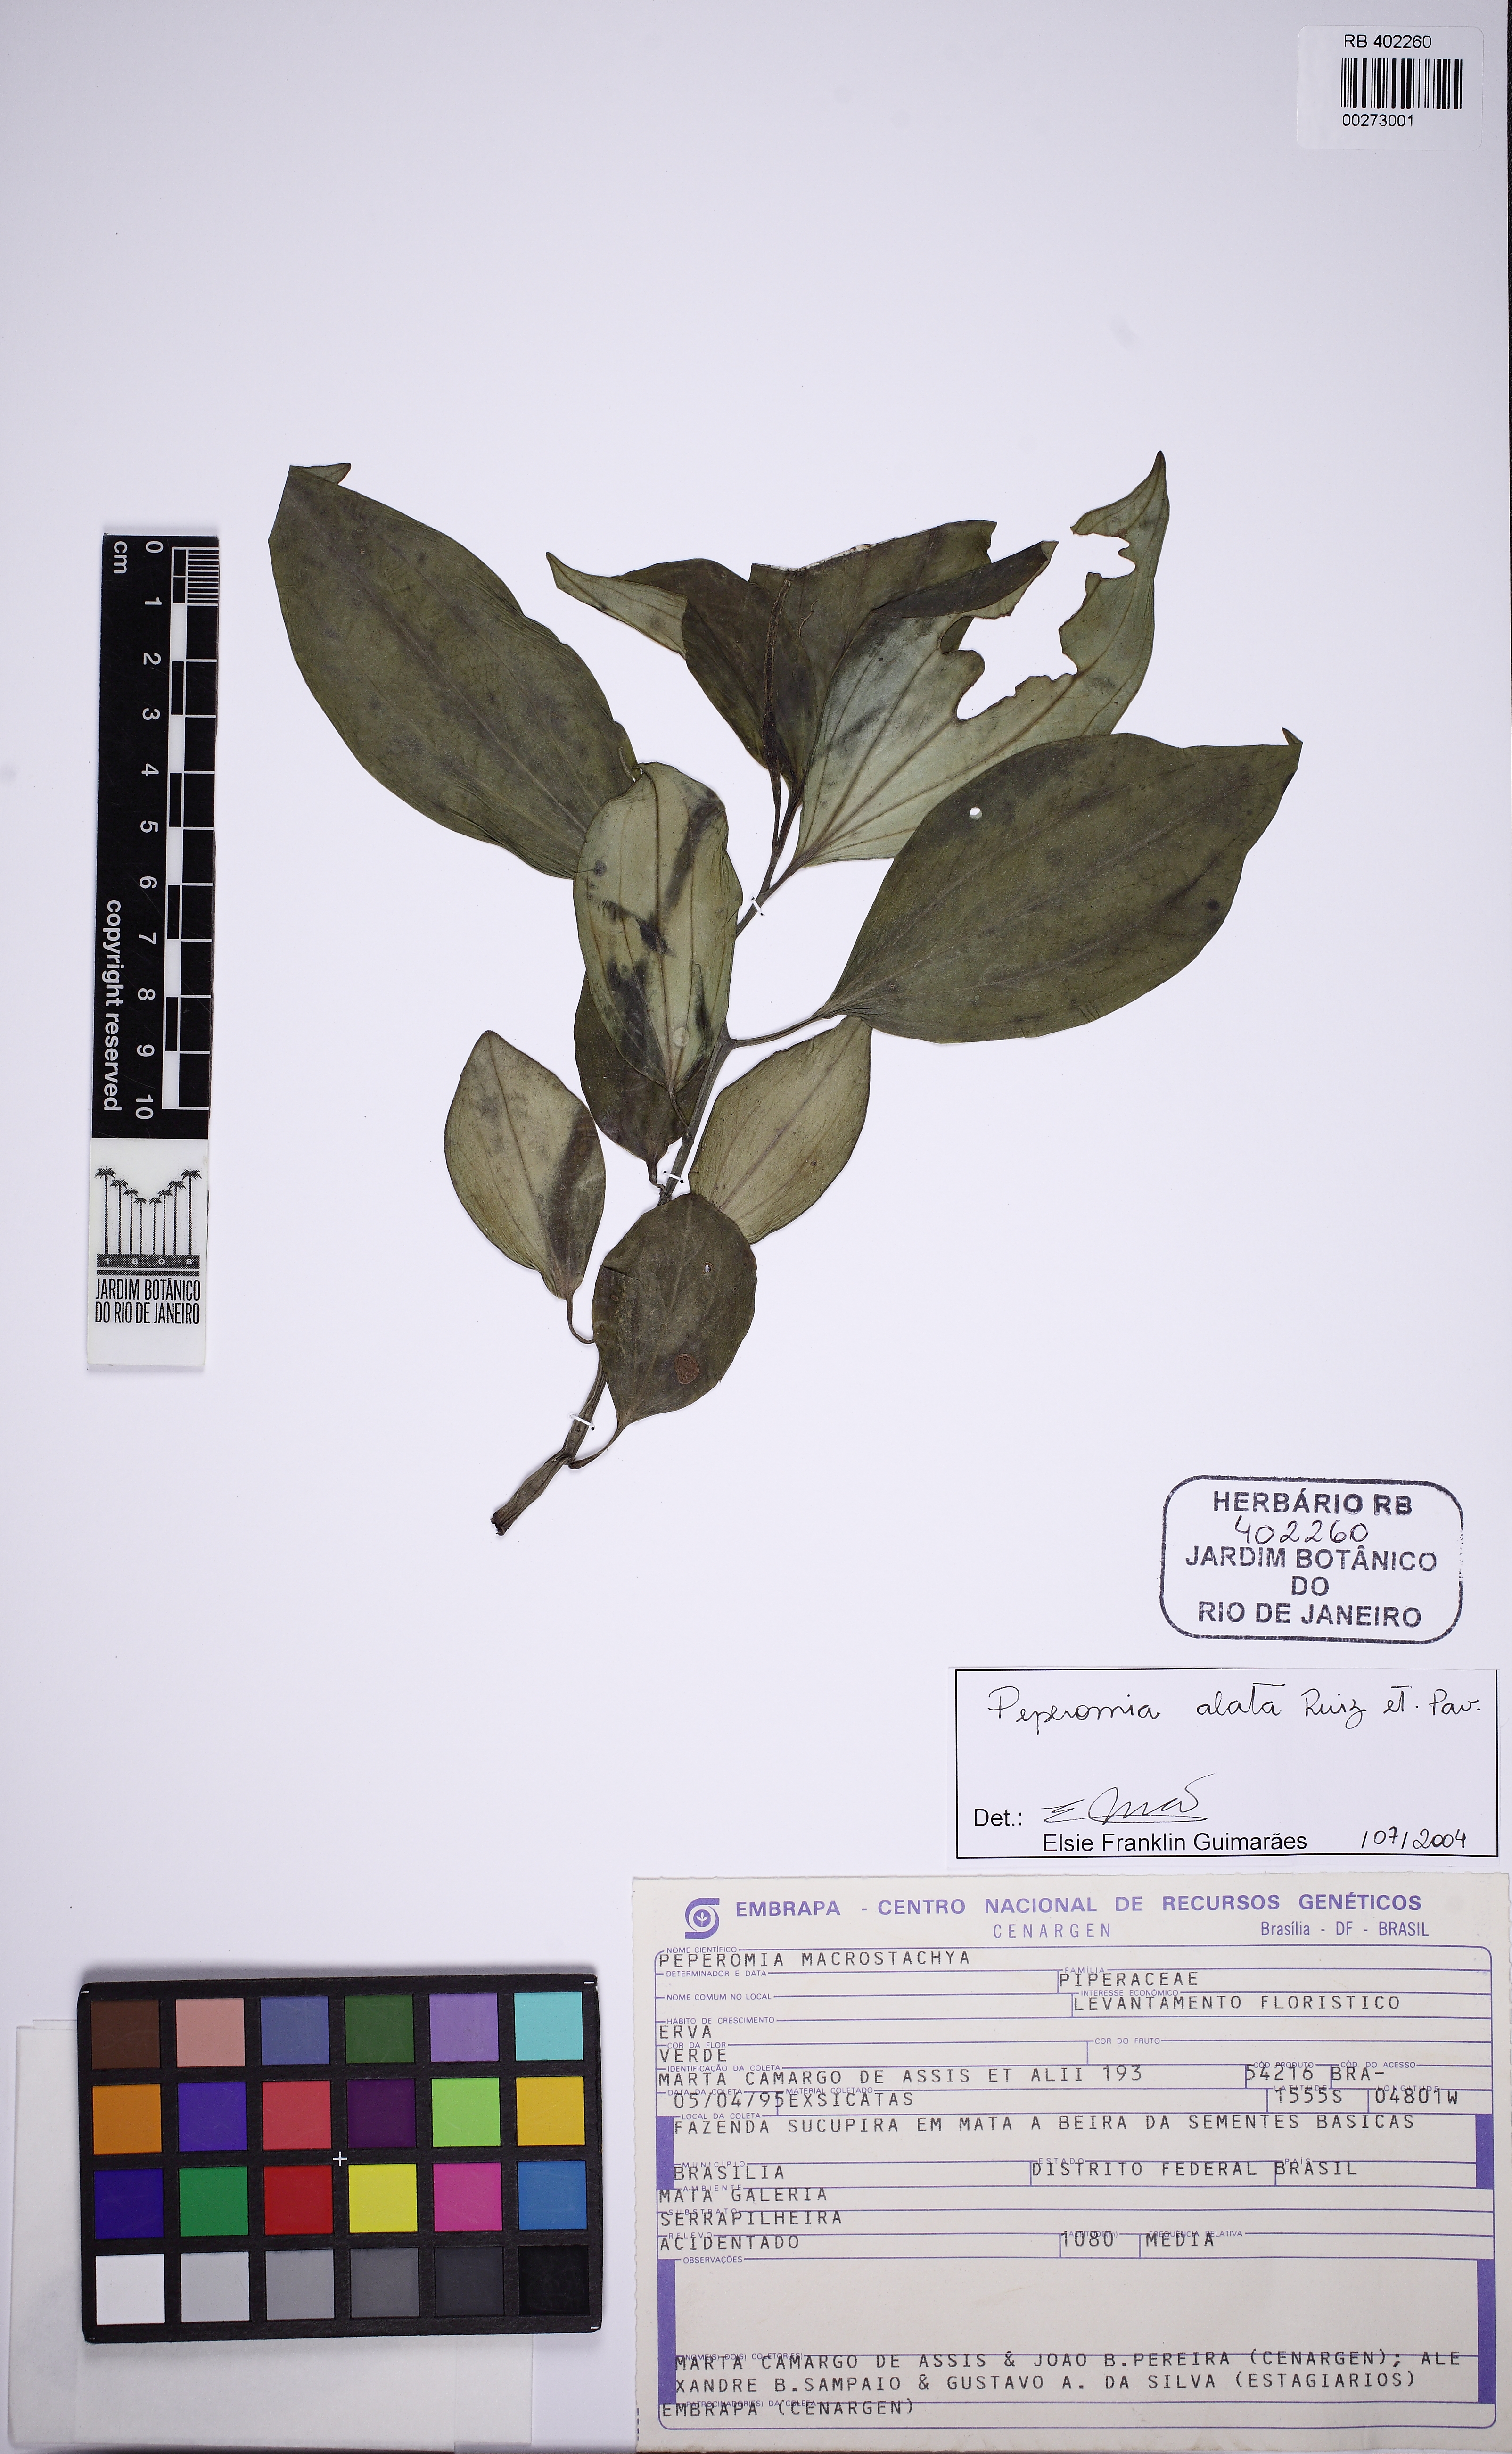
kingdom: Plantae
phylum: Tracheophyta
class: Magnoliopsida
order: Piperales
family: Piperaceae
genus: Peperomia
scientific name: Peperomia alata
